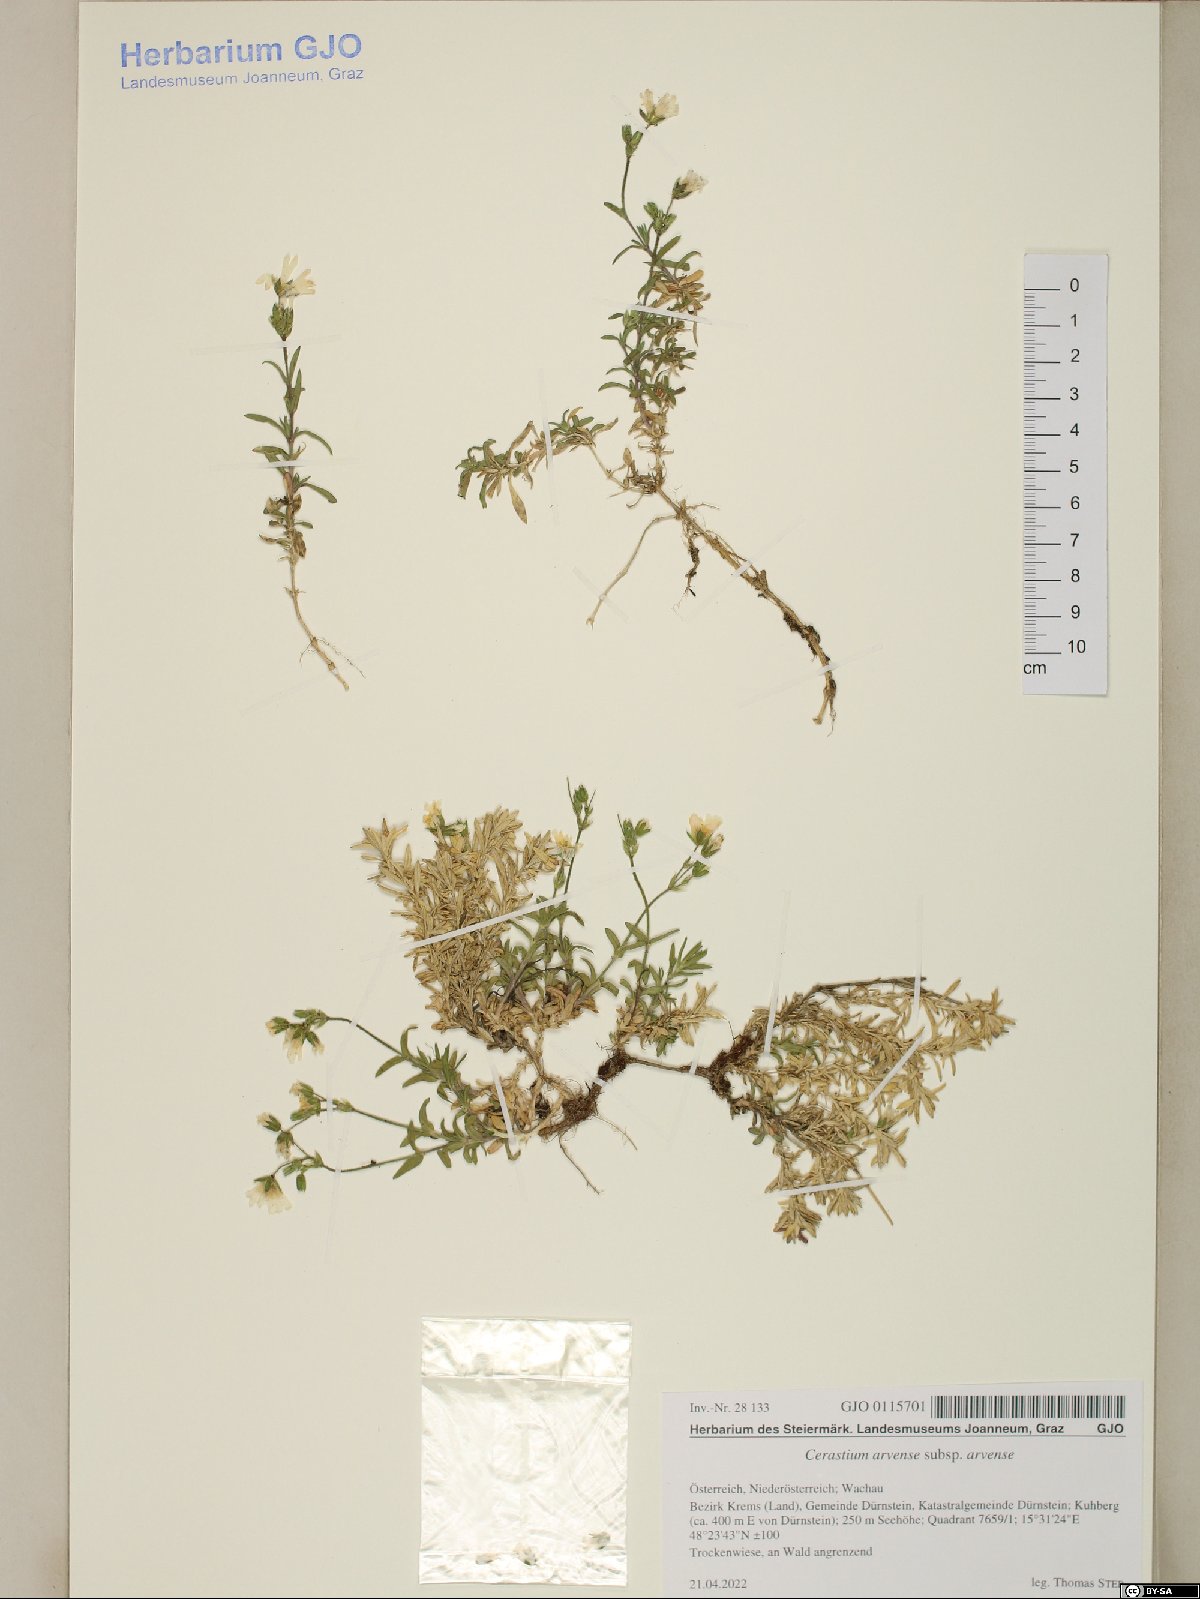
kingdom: Plantae
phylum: Tracheophyta
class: Magnoliopsida
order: Caryophyllales
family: Caryophyllaceae
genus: Cerastium
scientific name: Cerastium arvense
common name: Field mouse-ear
